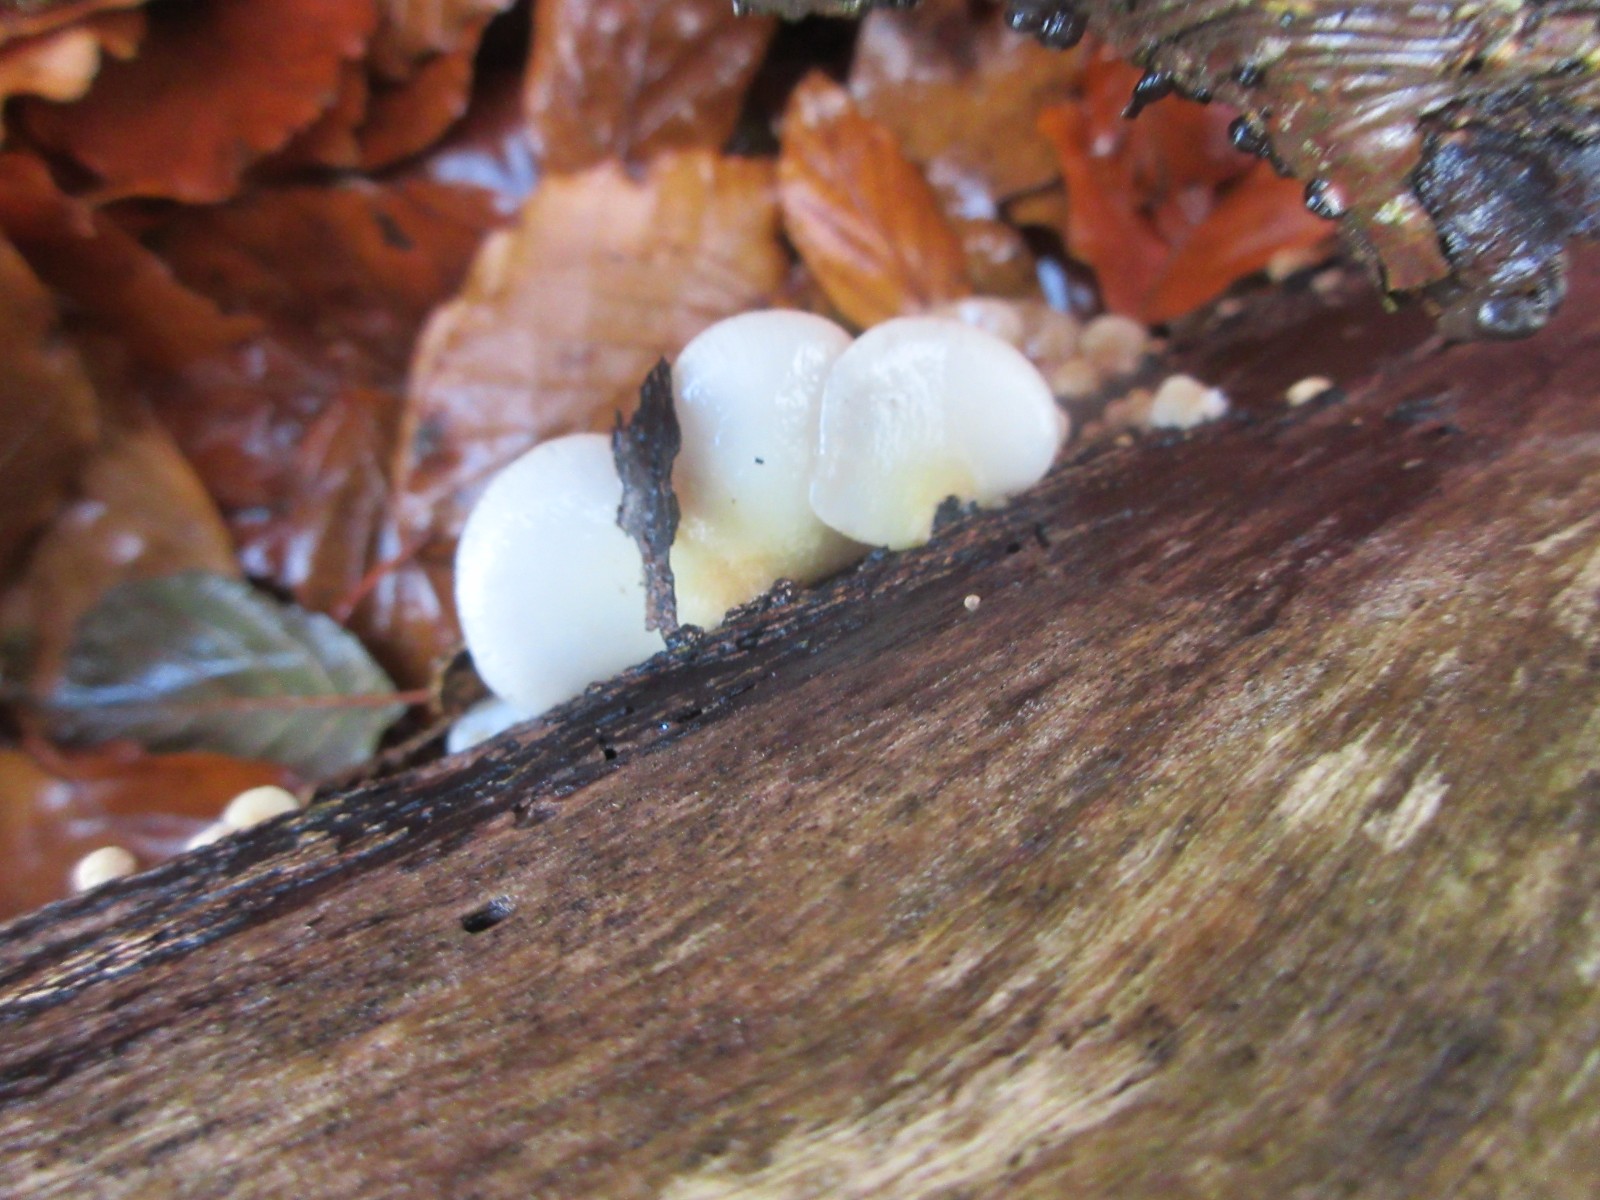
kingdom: Fungi
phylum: Basidiomycota
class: Agaricomycetes
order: Agaricales
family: Crepidotaceae
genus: Crepidotus
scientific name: Crepidotus mollis
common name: blød muslingesvamp
